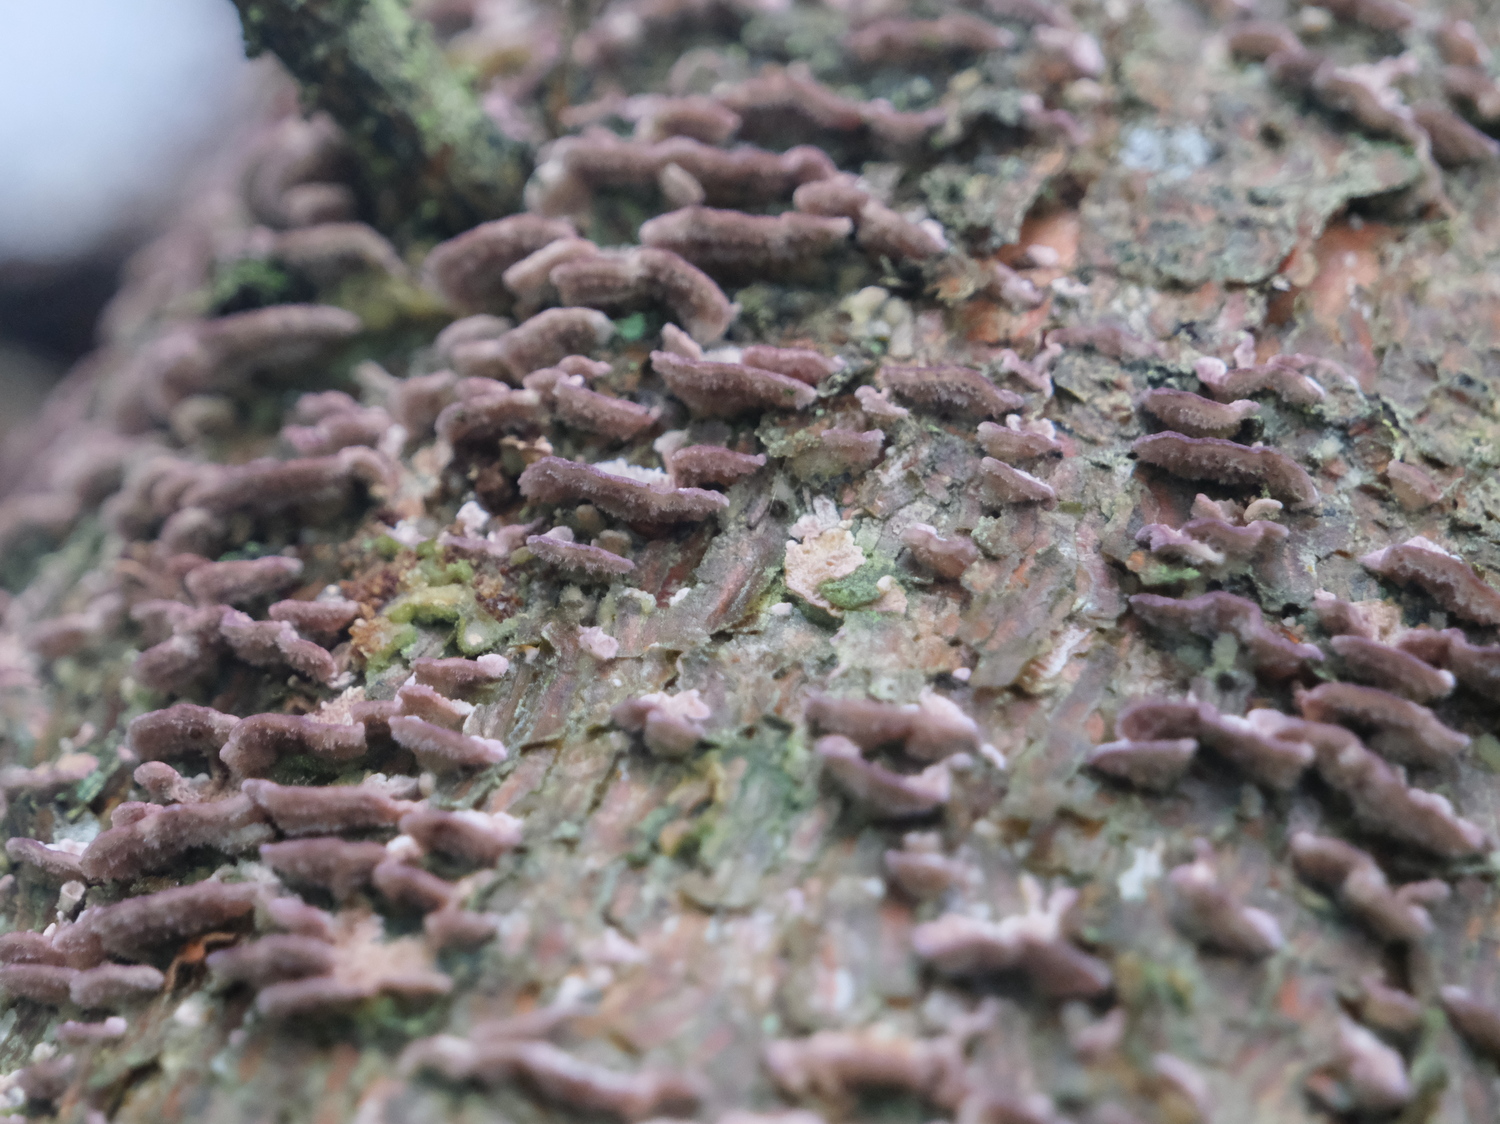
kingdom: Fungi
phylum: Basidiomycota
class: Agaricomycetes
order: Hymenochaetales
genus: Trichaptum
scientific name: Trichaptum abietinum
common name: almindelig violporesvamp
